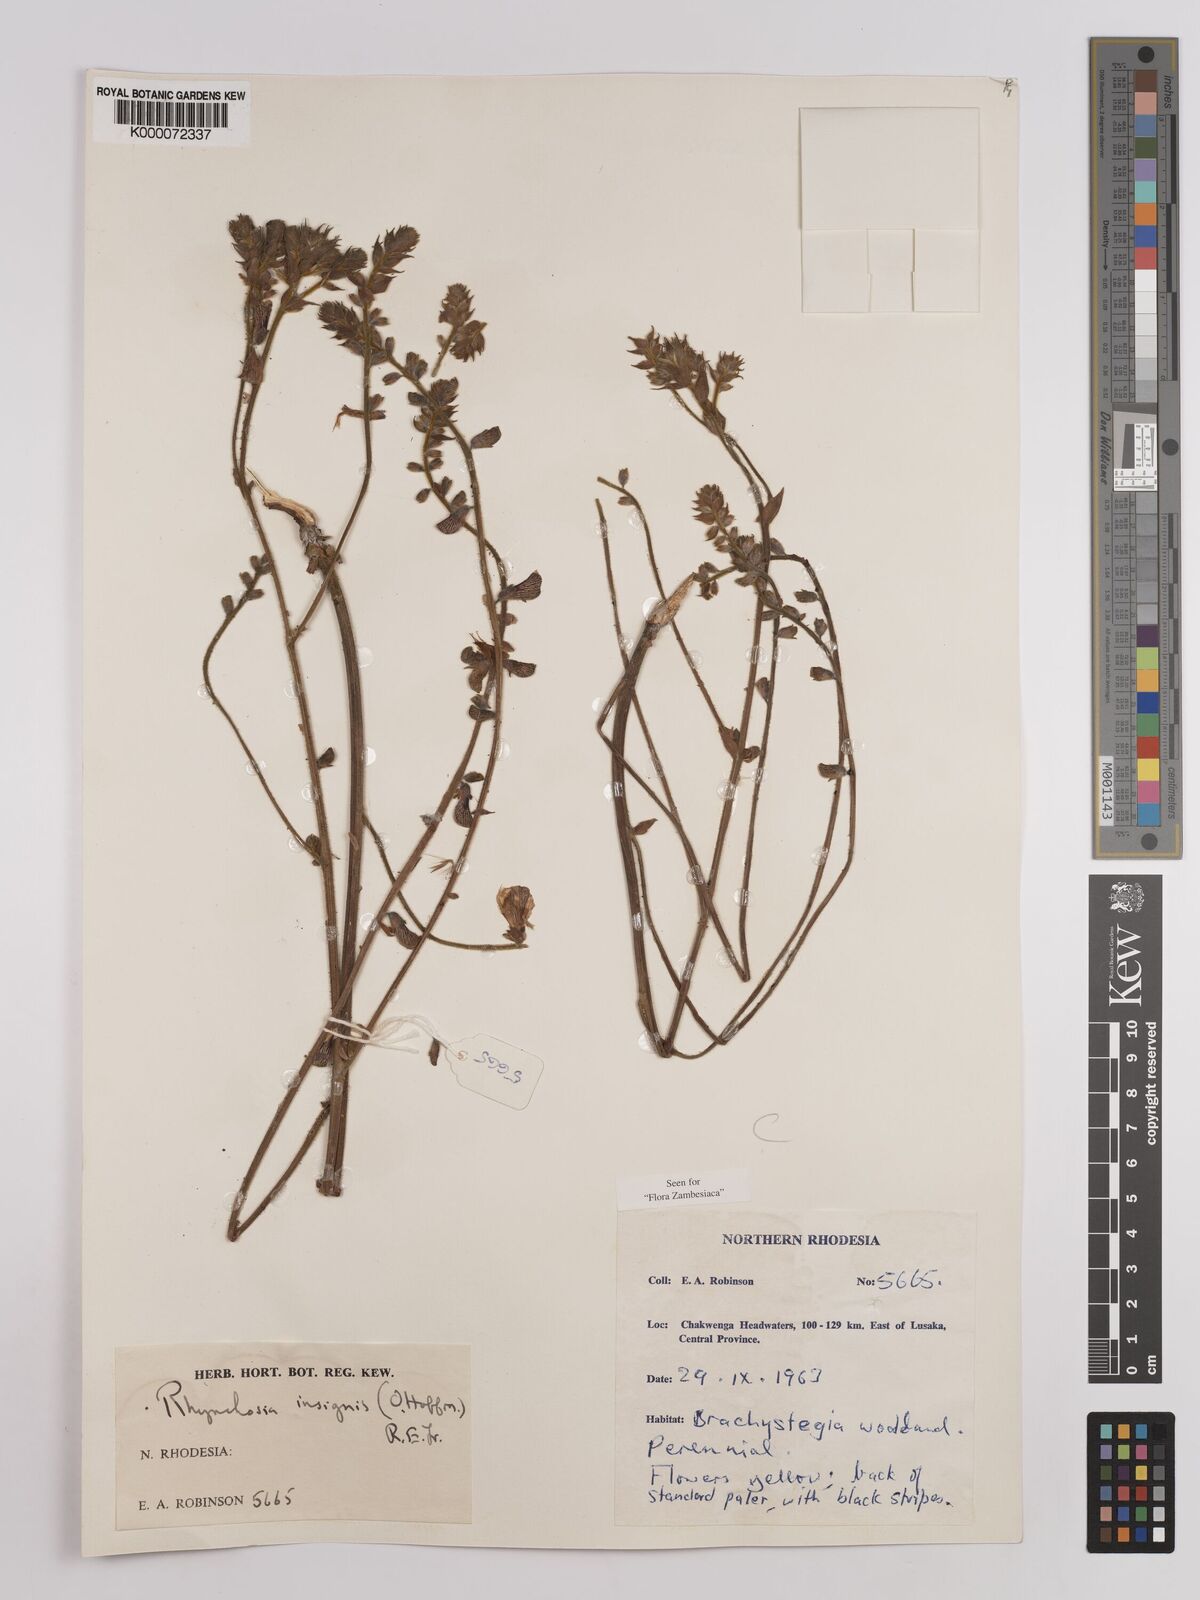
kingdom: Plantae
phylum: Tracheophyta
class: Magnoliopsida
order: Fabales
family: Fabaceae
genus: Rhynchosia
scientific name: Rhynchosia insignis
